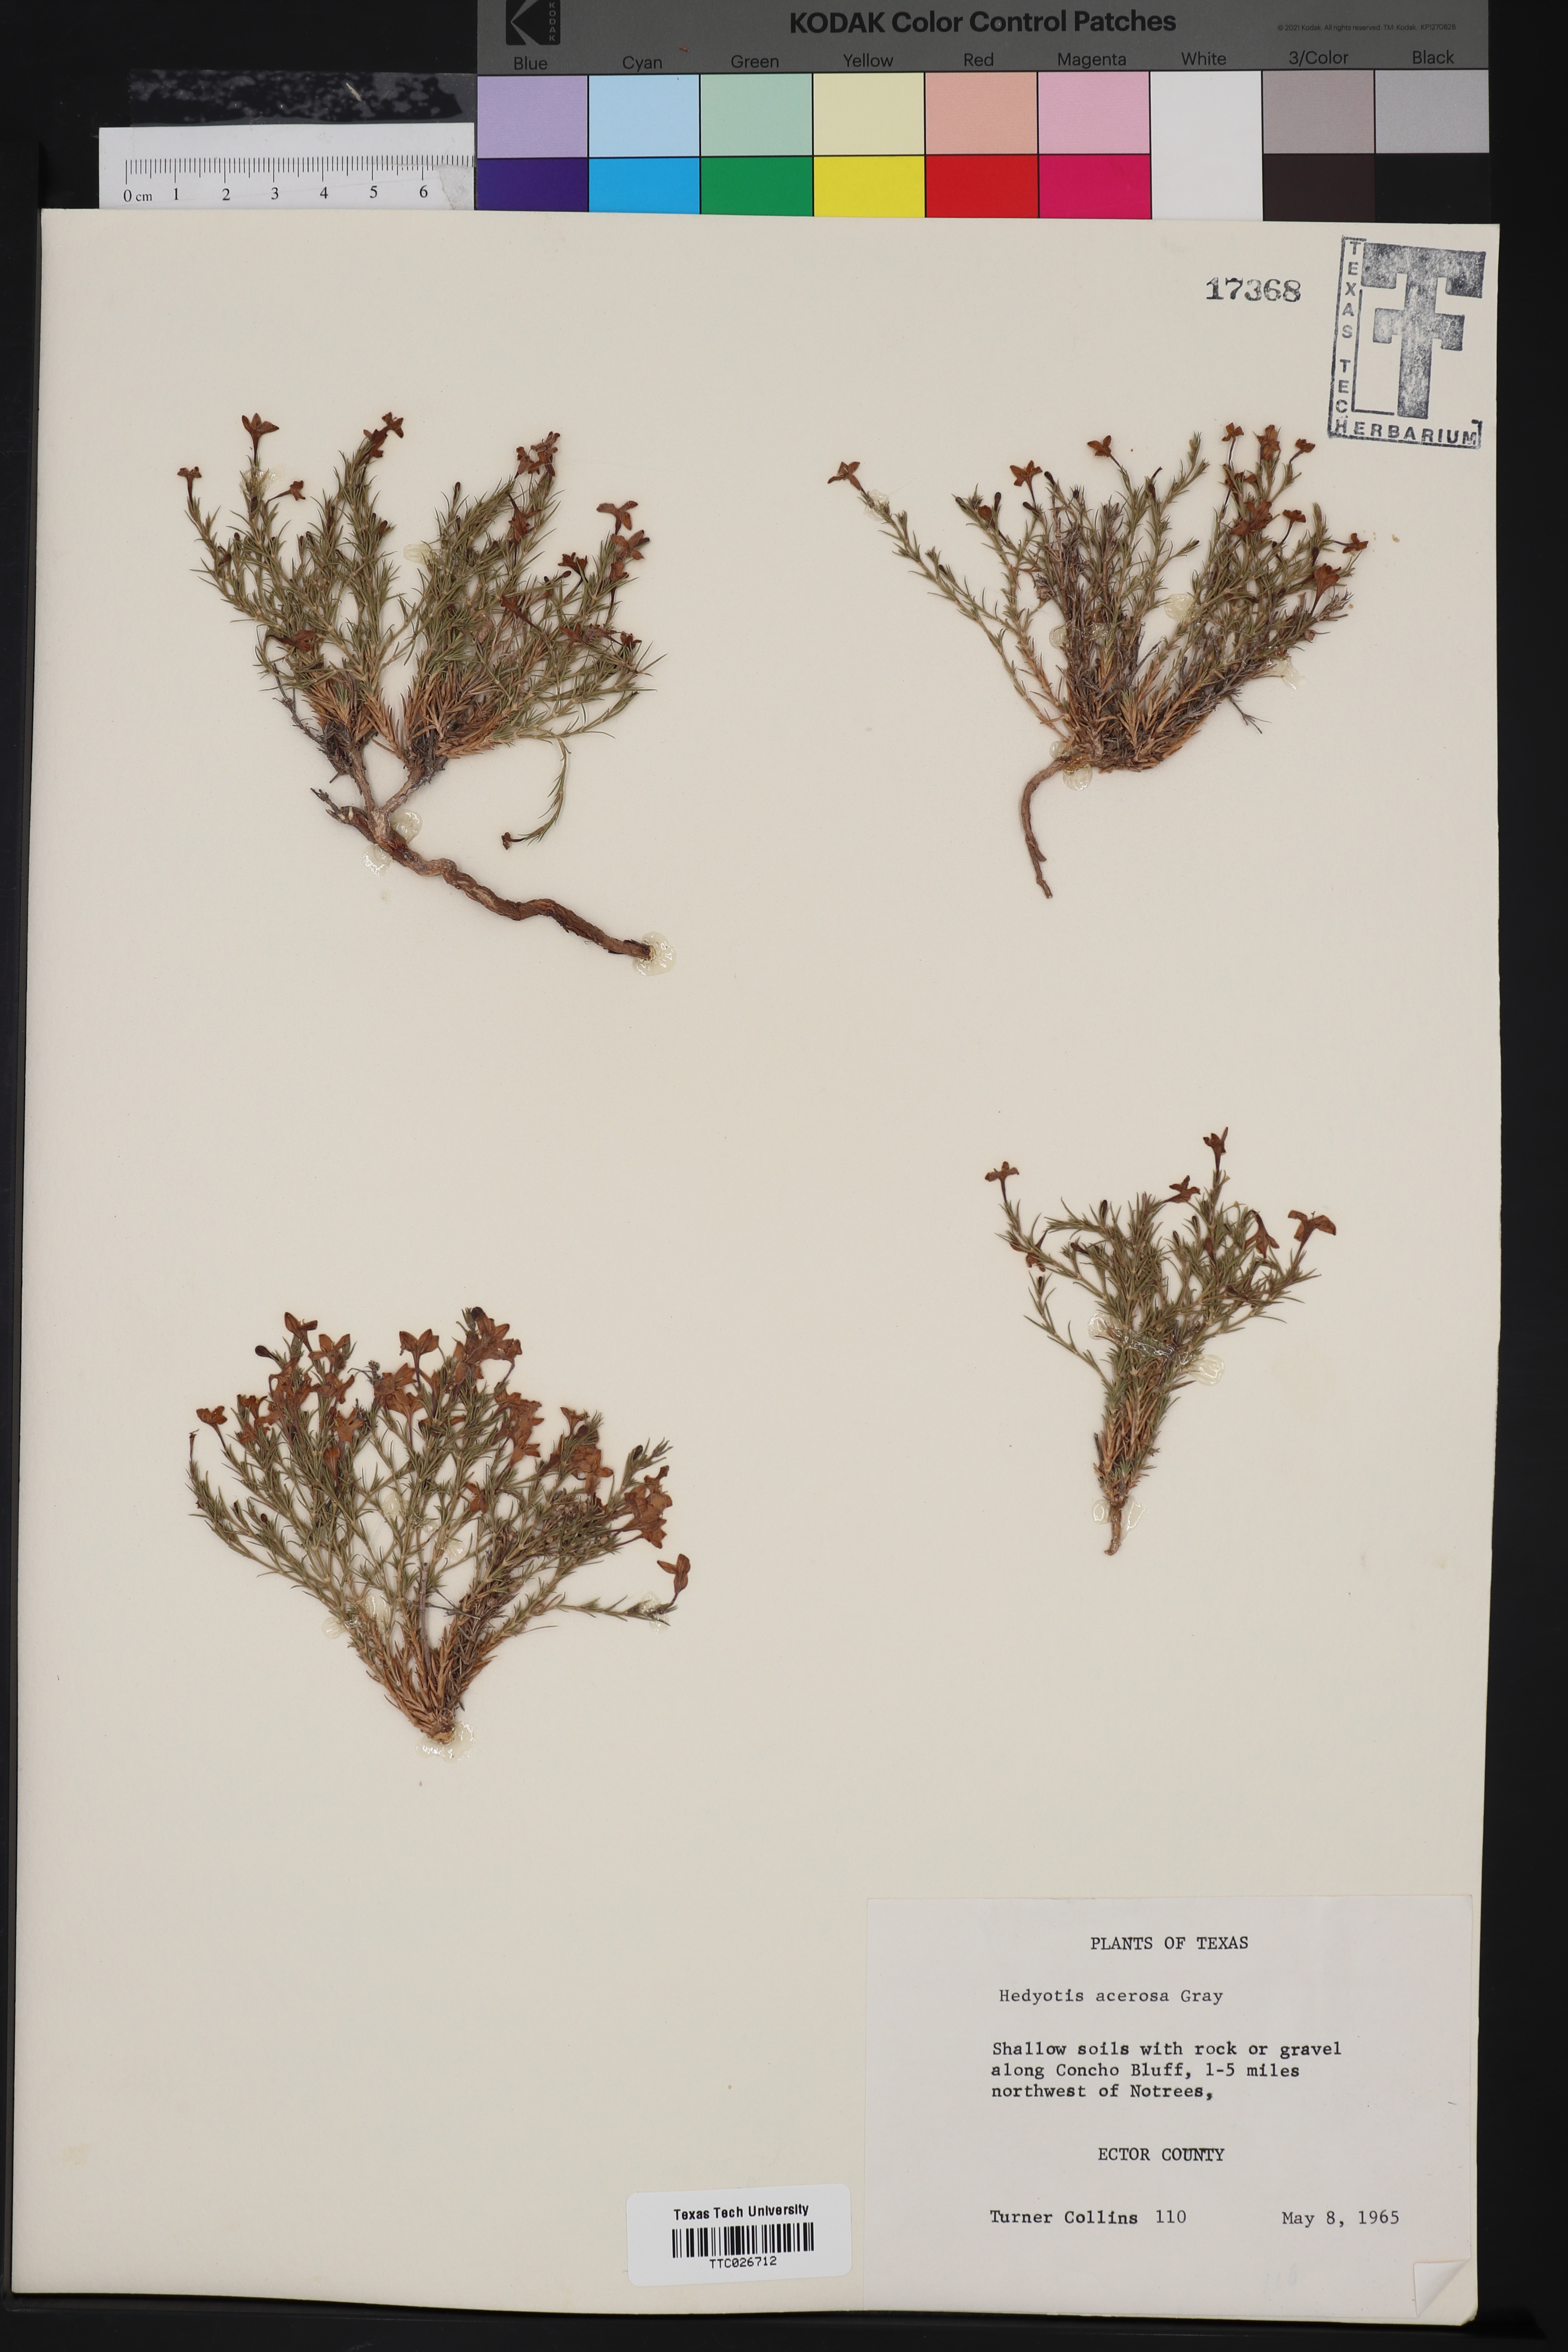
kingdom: Plantae
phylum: Tracheophyta
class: Magnoliopsida
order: Gentianales
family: Rubiaceae
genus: Houstonia
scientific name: Houstonia acerosa
